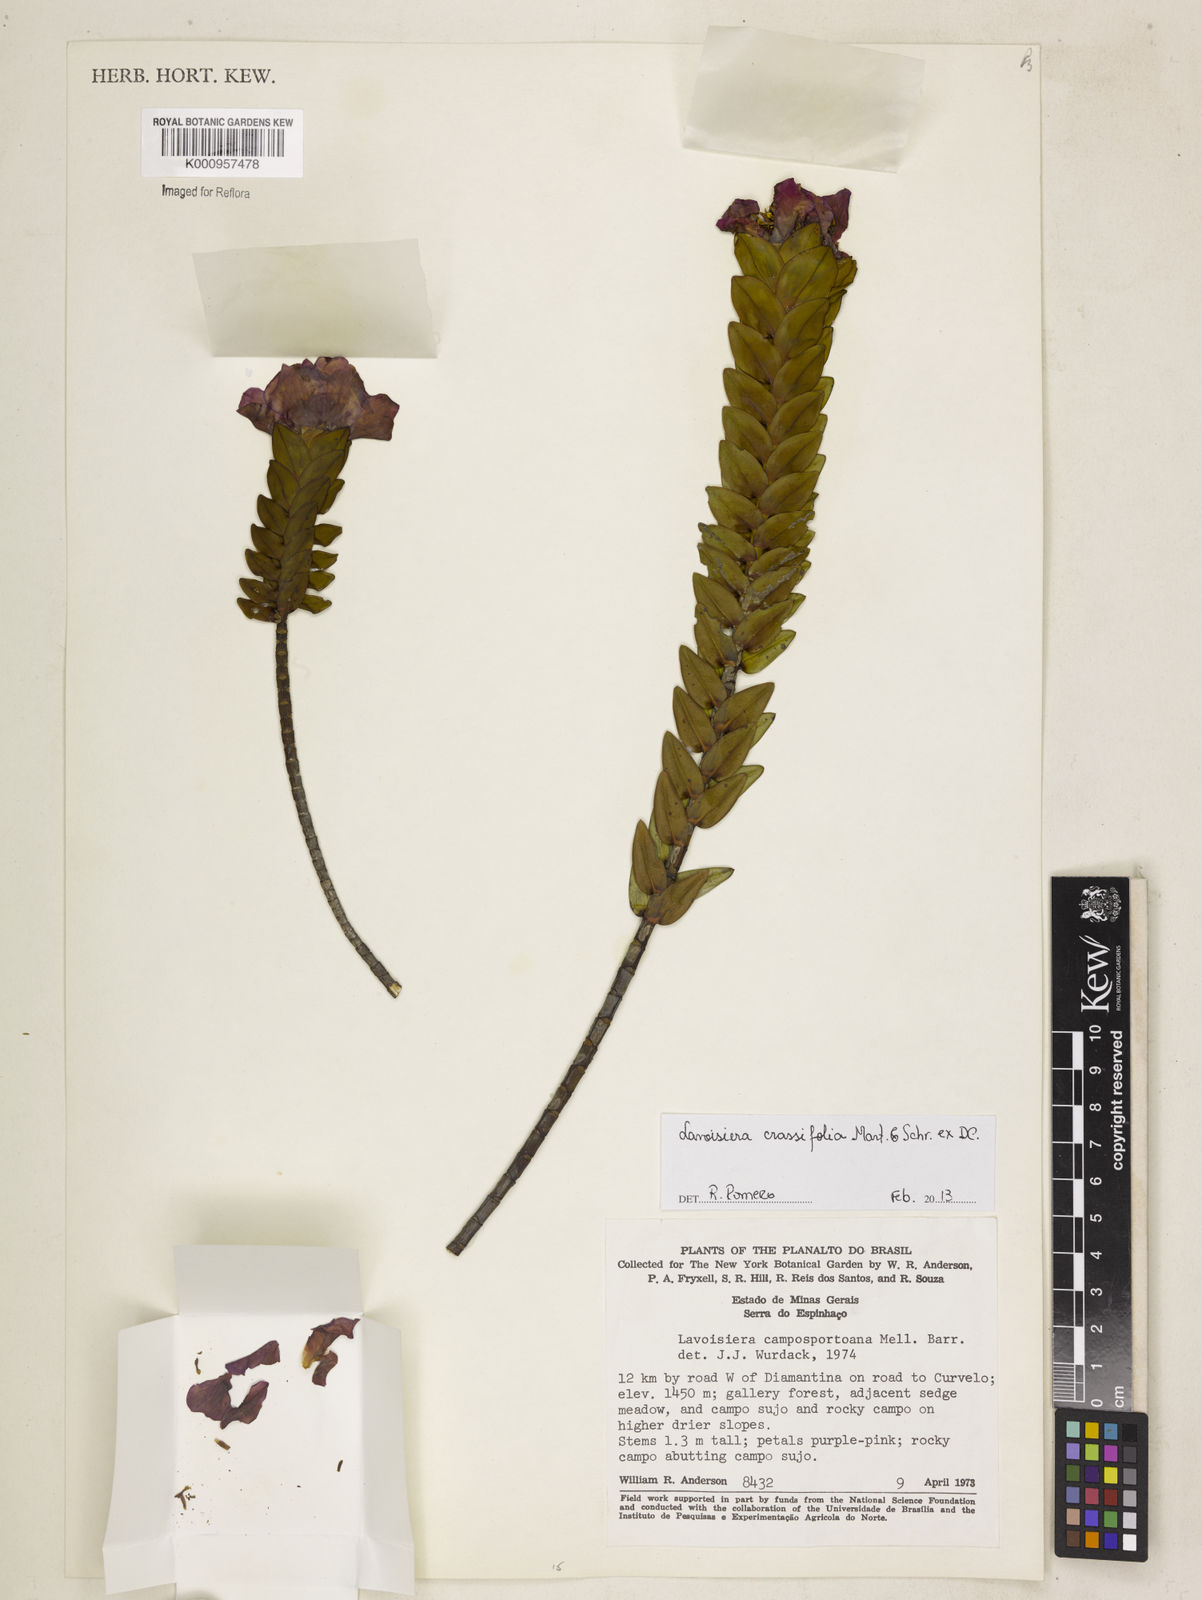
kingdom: Plantae
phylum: Tracheophyta
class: Magnoliopsida
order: Myrtales
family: Melastomataceae
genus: Microlicia
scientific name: Microlicia crassifolia
